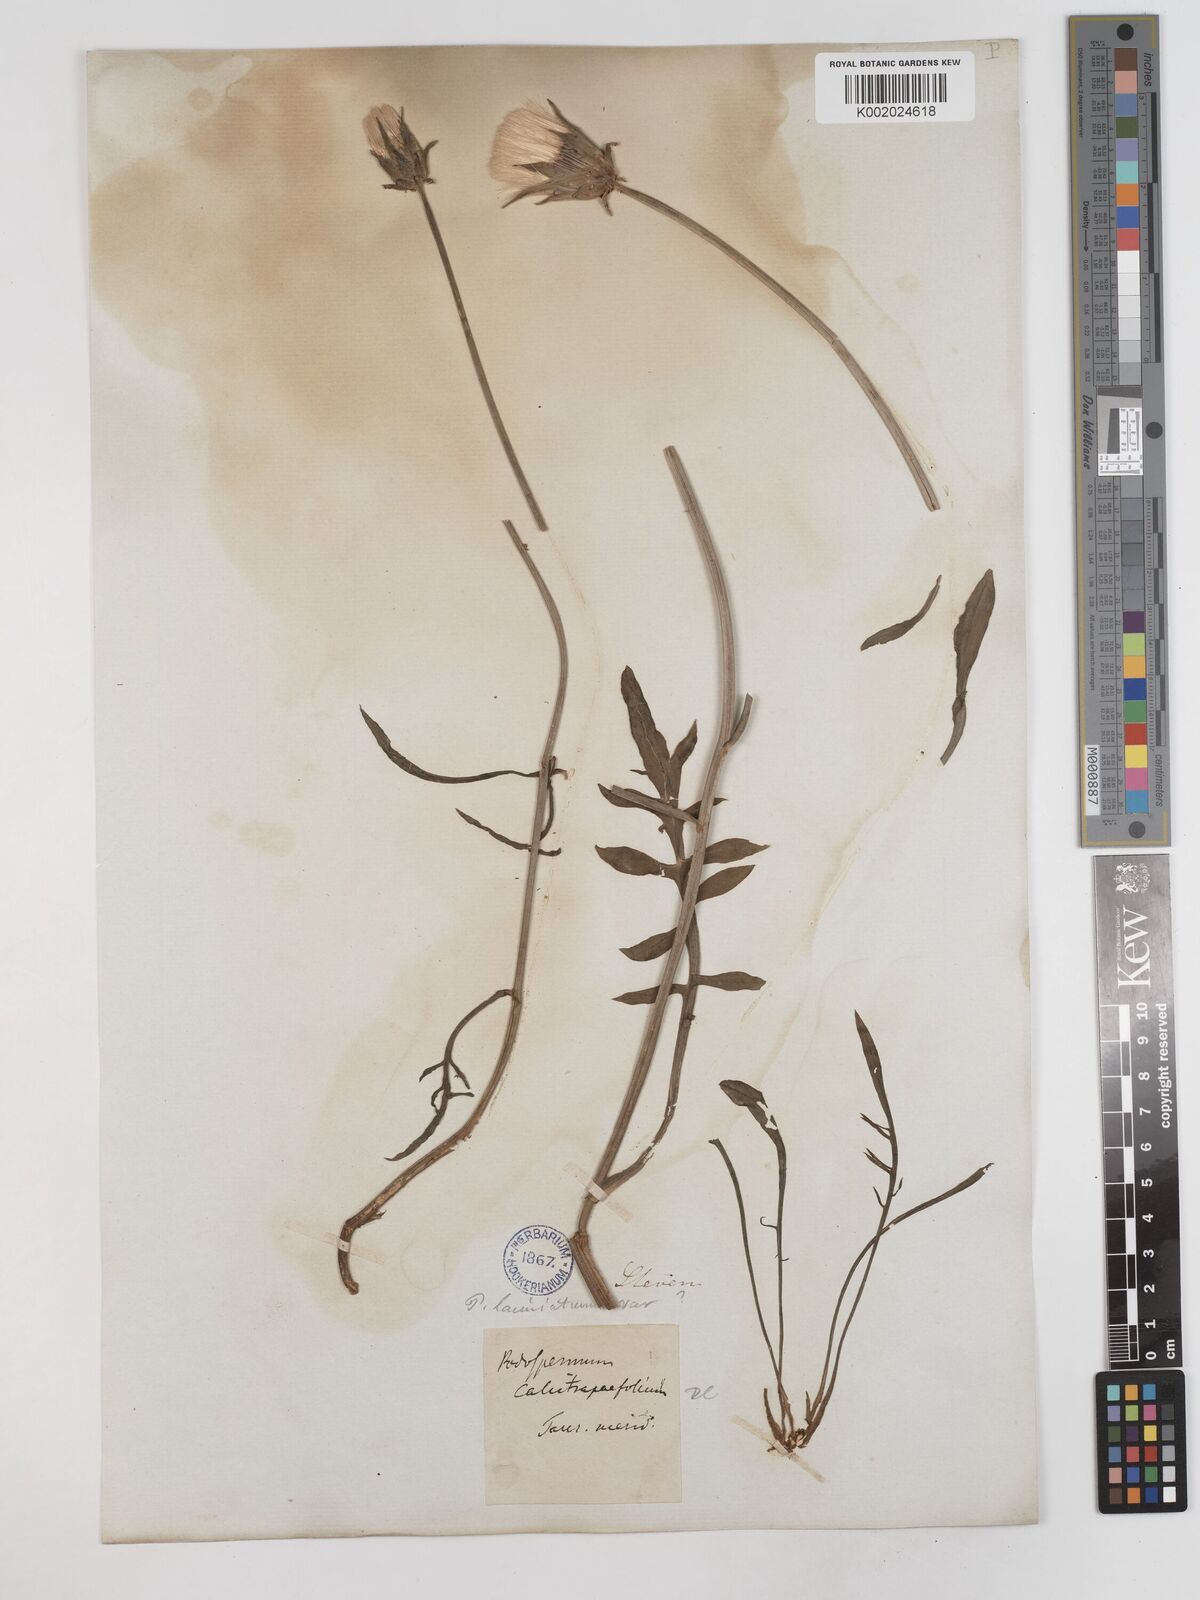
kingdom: Plantae
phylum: Tracheophyta
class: Magnoliopsida
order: Asterales
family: Asteraceae
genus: Scorzonera
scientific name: Scorzonera laciniata
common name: Cutleaf vipergrass
